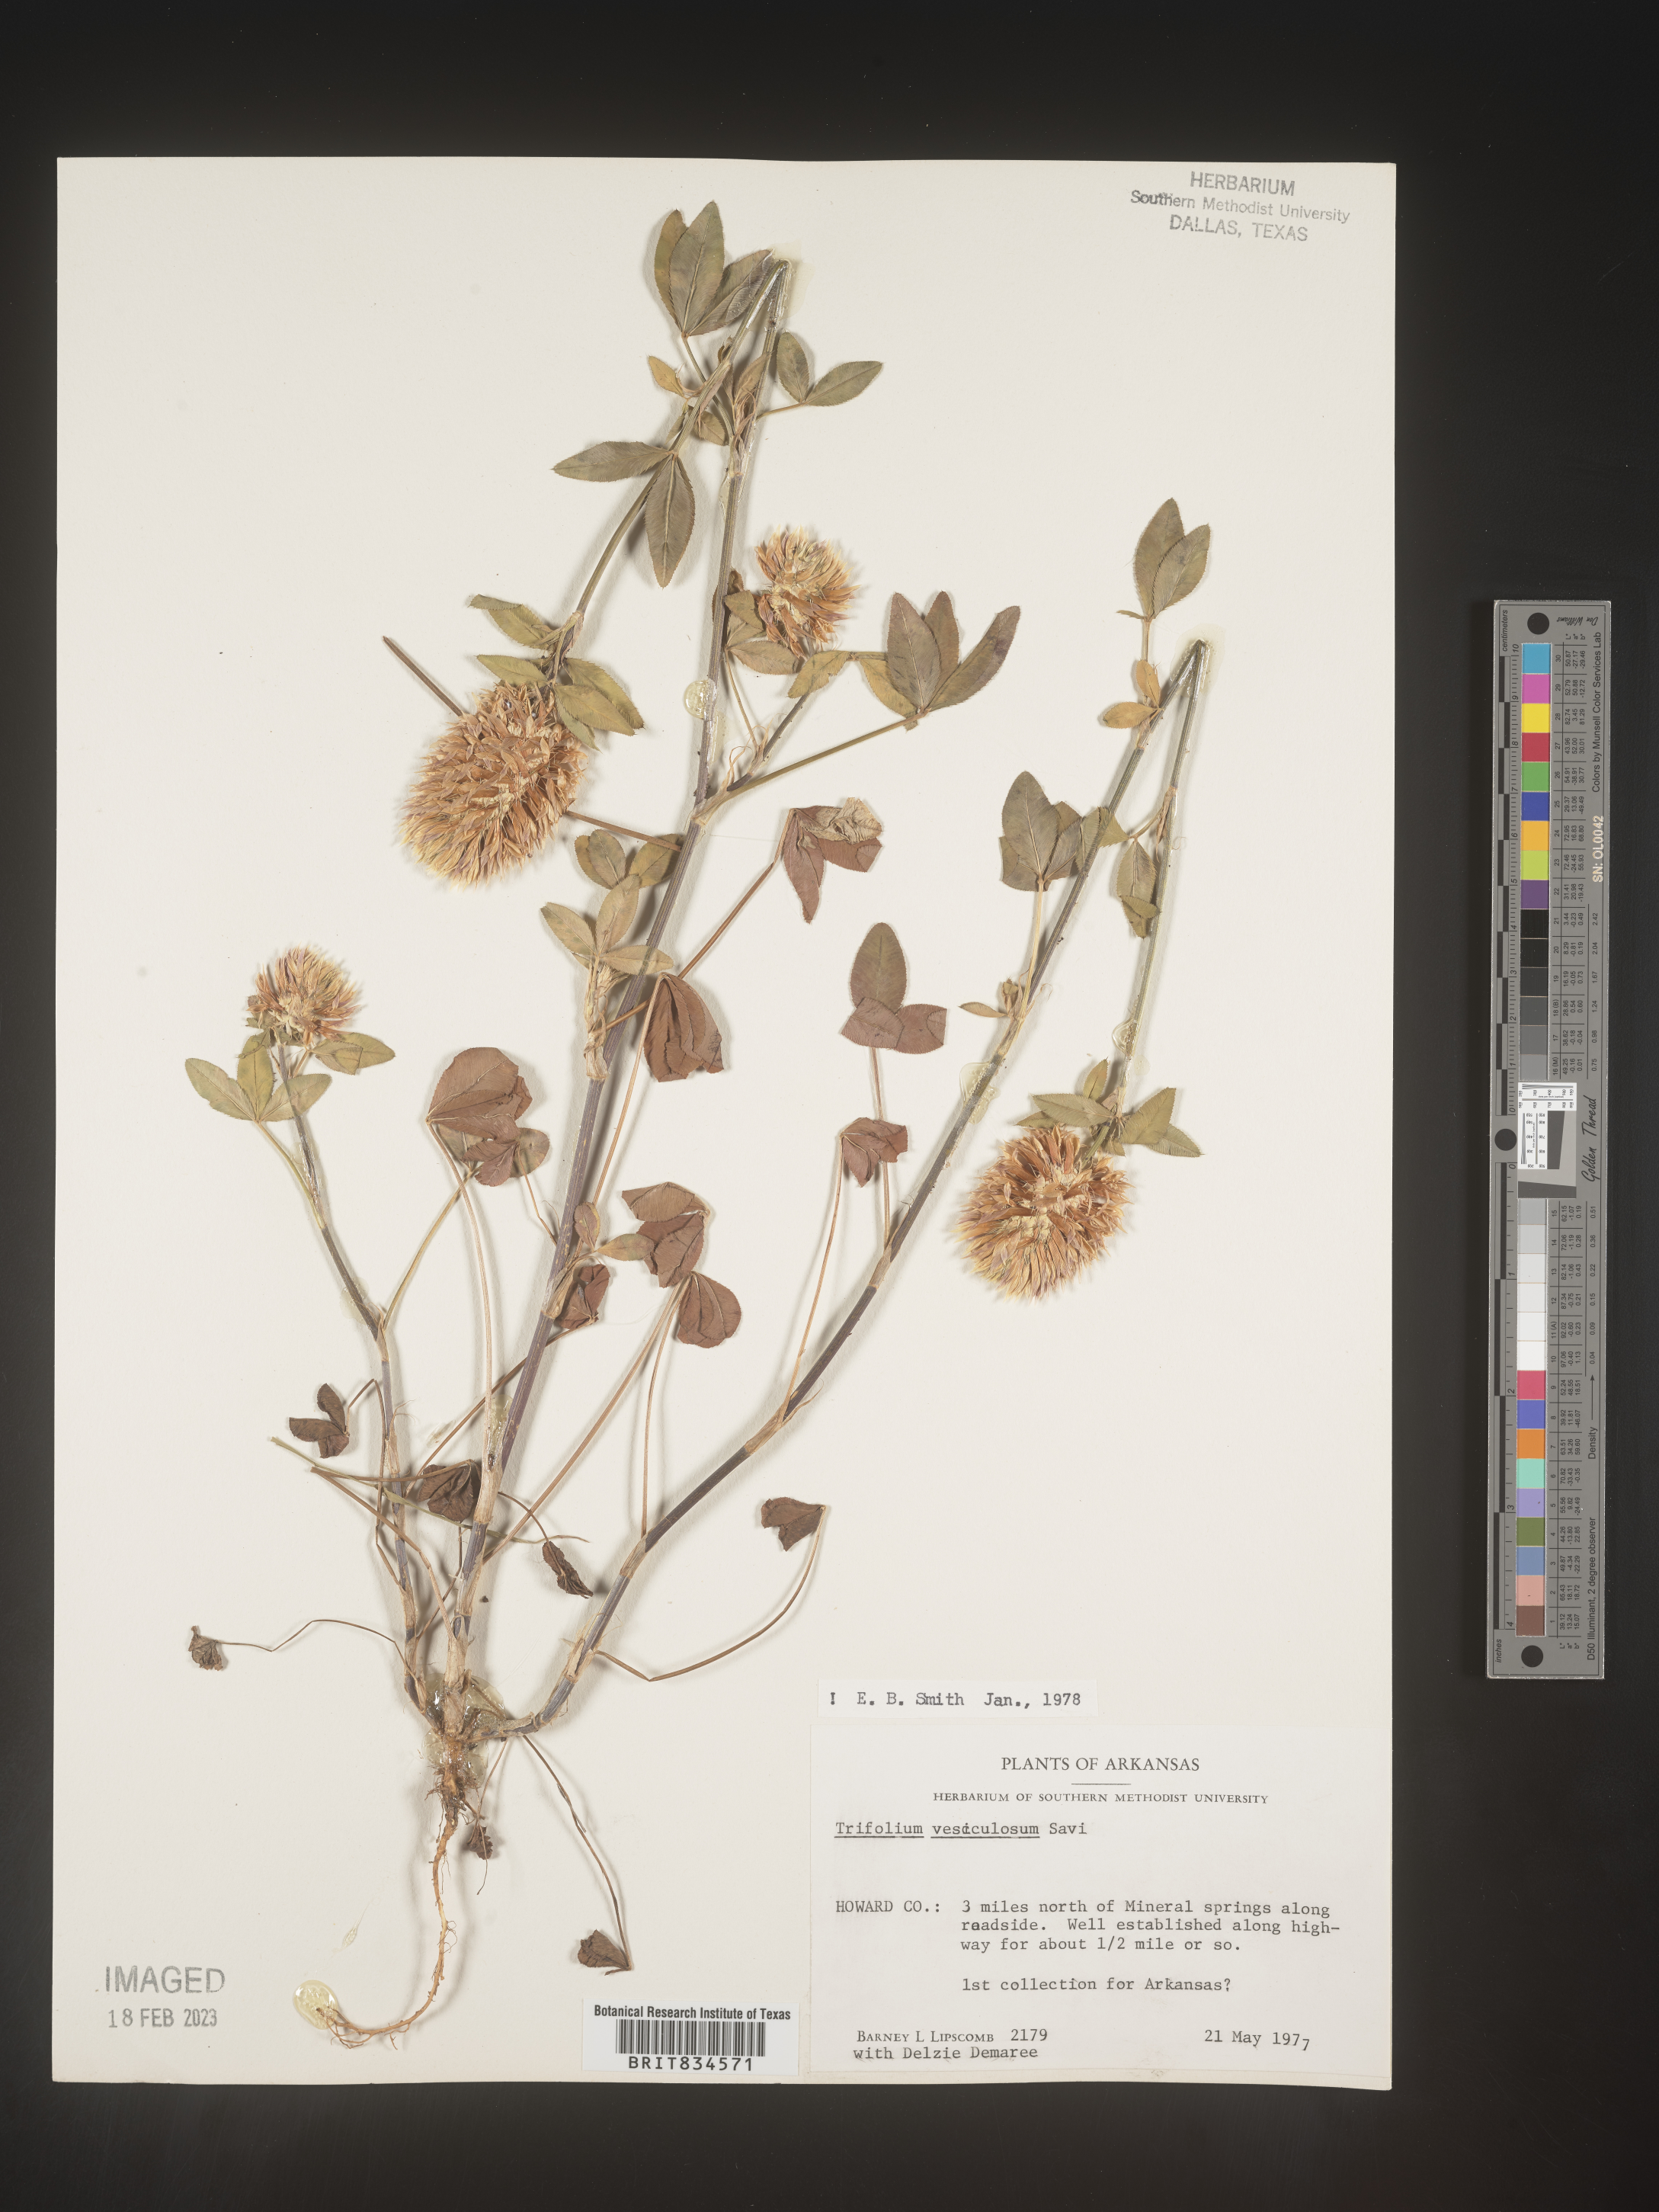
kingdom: Plantae
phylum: Tracheophyta
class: Magnoliopsida
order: Fabales
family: Fabaceae
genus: Trifolium
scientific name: Trifolium
